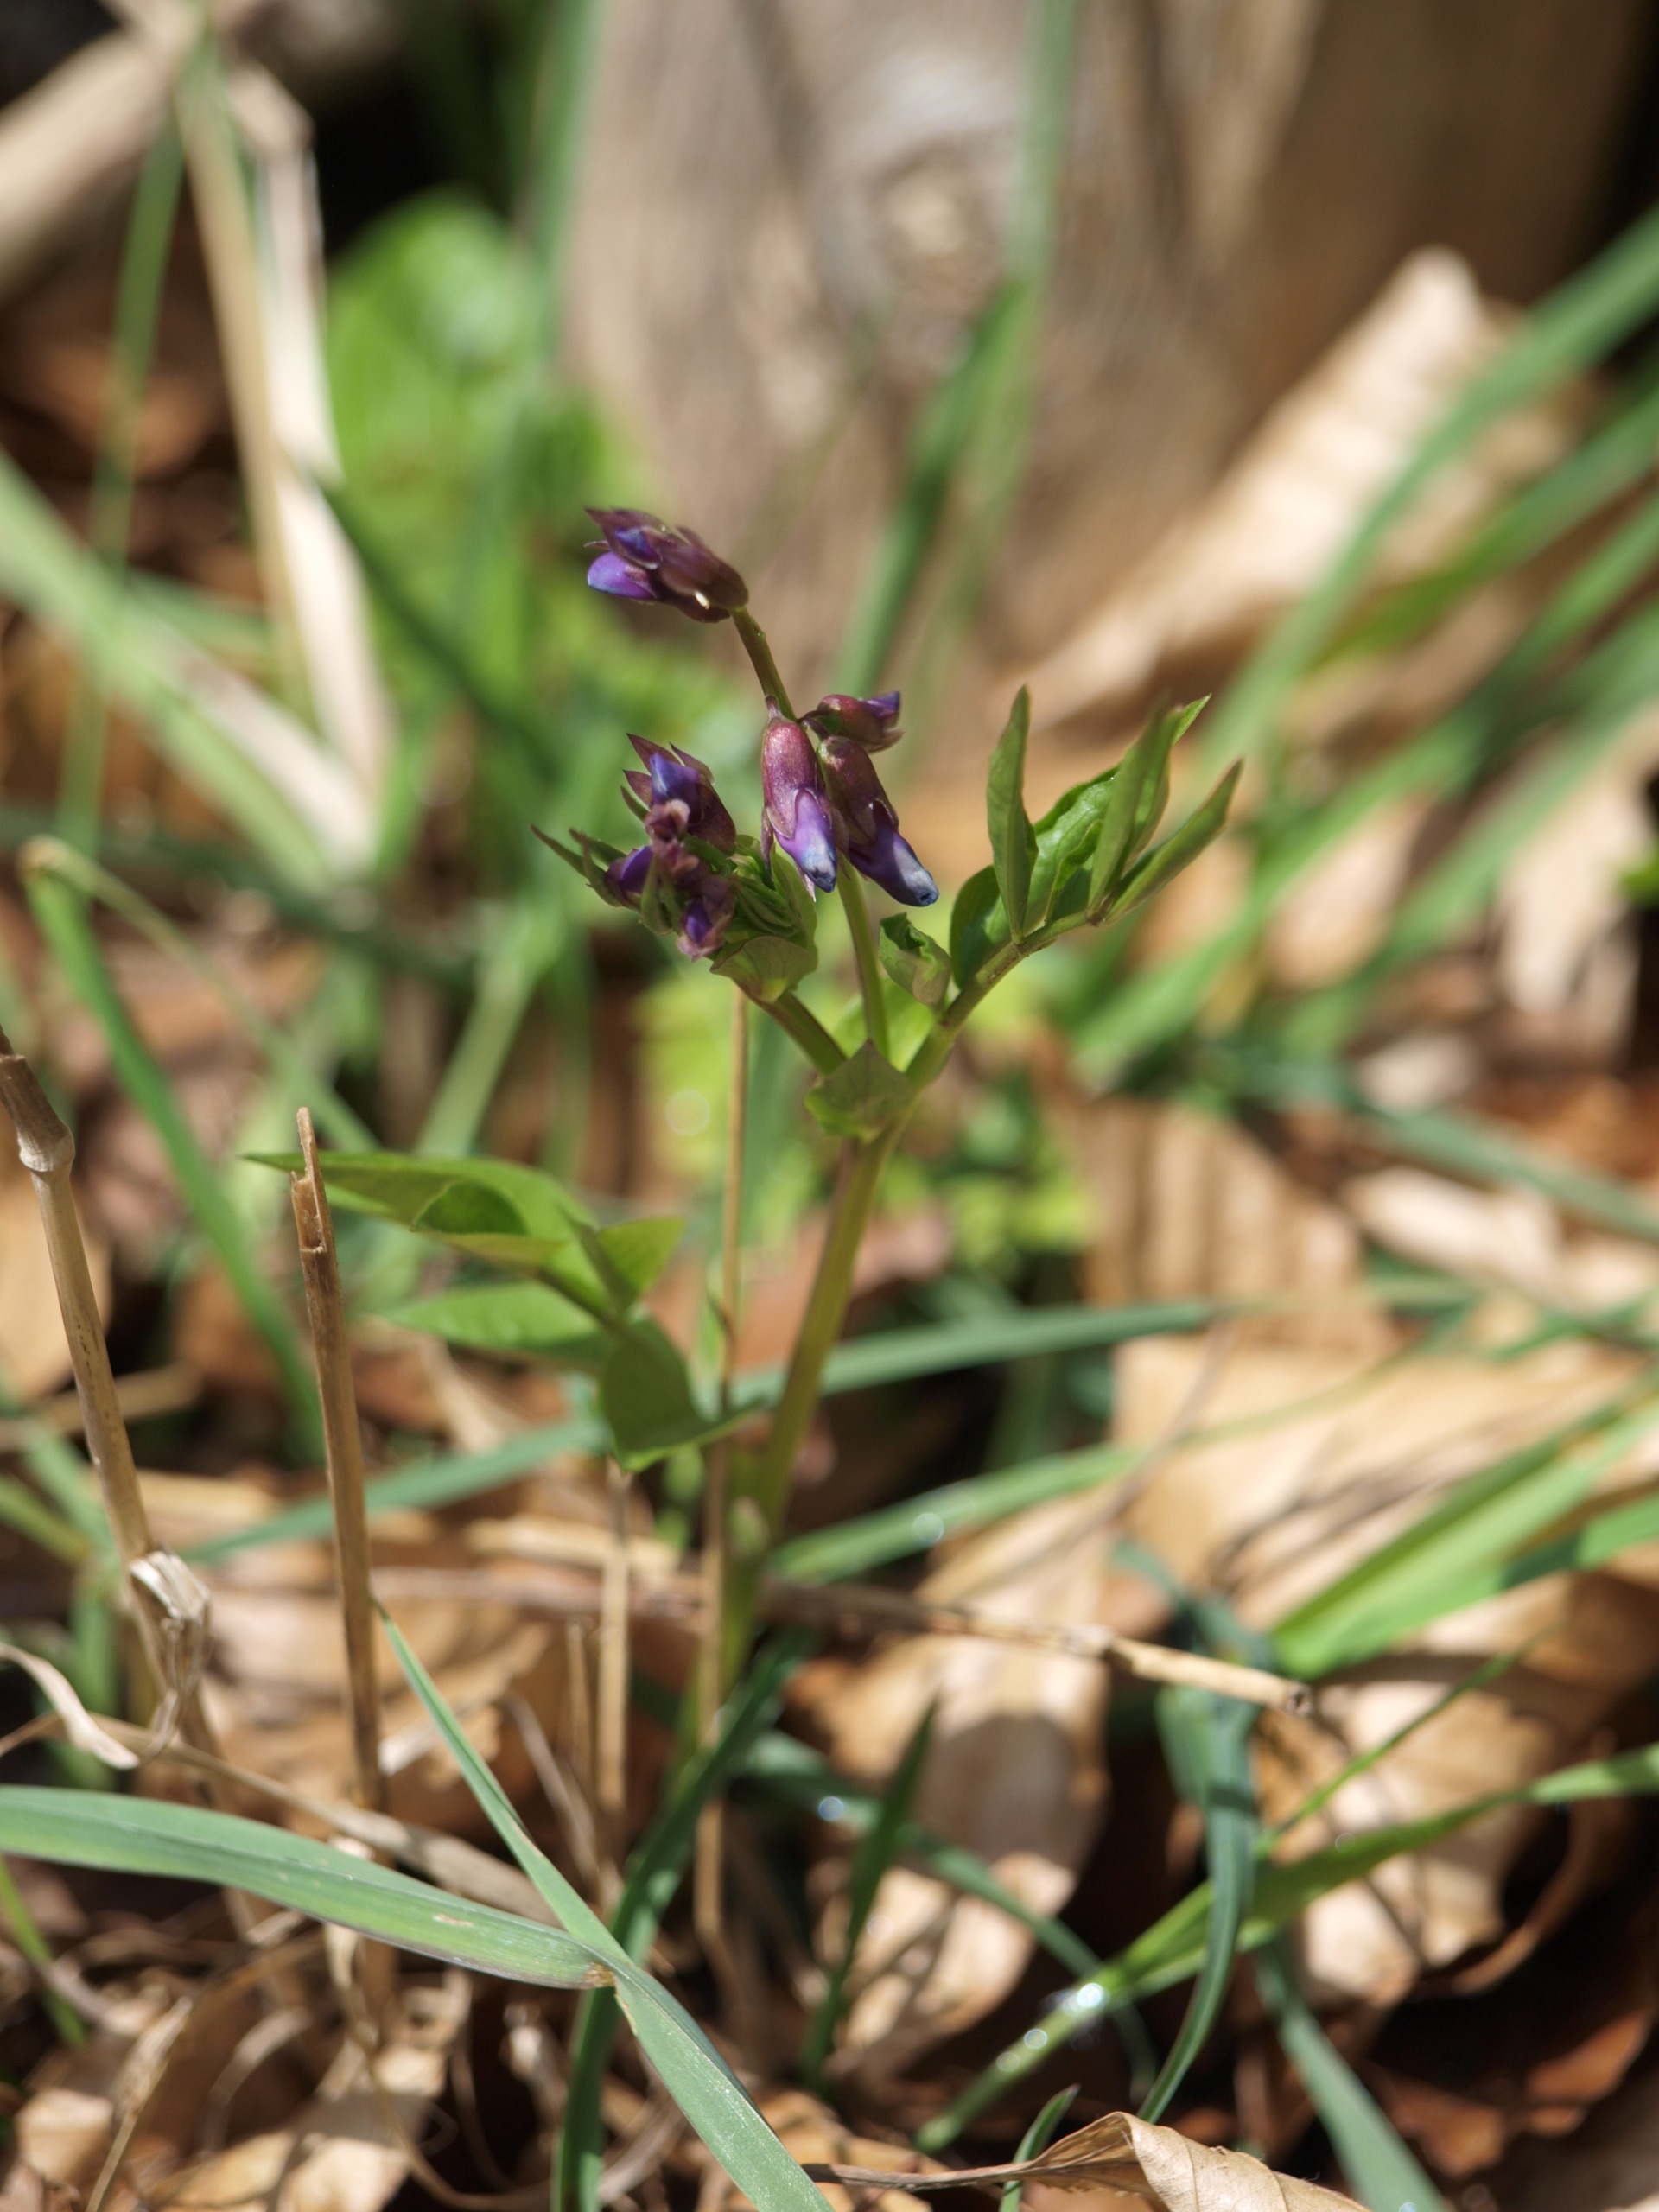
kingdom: Plantae
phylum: Tracheophyta
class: Magnoliopsida
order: Fabales
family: Fabaceae
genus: Lathyrus
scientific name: Lathyrus linifolius
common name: Krat-fladbælg
